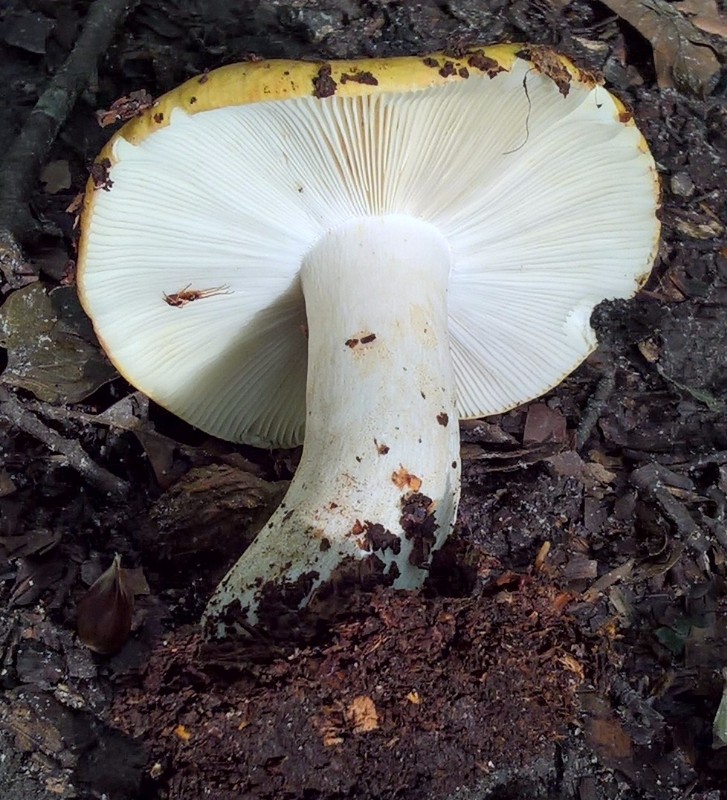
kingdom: Fungi
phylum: Basidiomycota
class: Agaricomycetes
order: Russulales
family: Russulaceae
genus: Russula
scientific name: Russula ochroleuca
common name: okkergul skørhat
